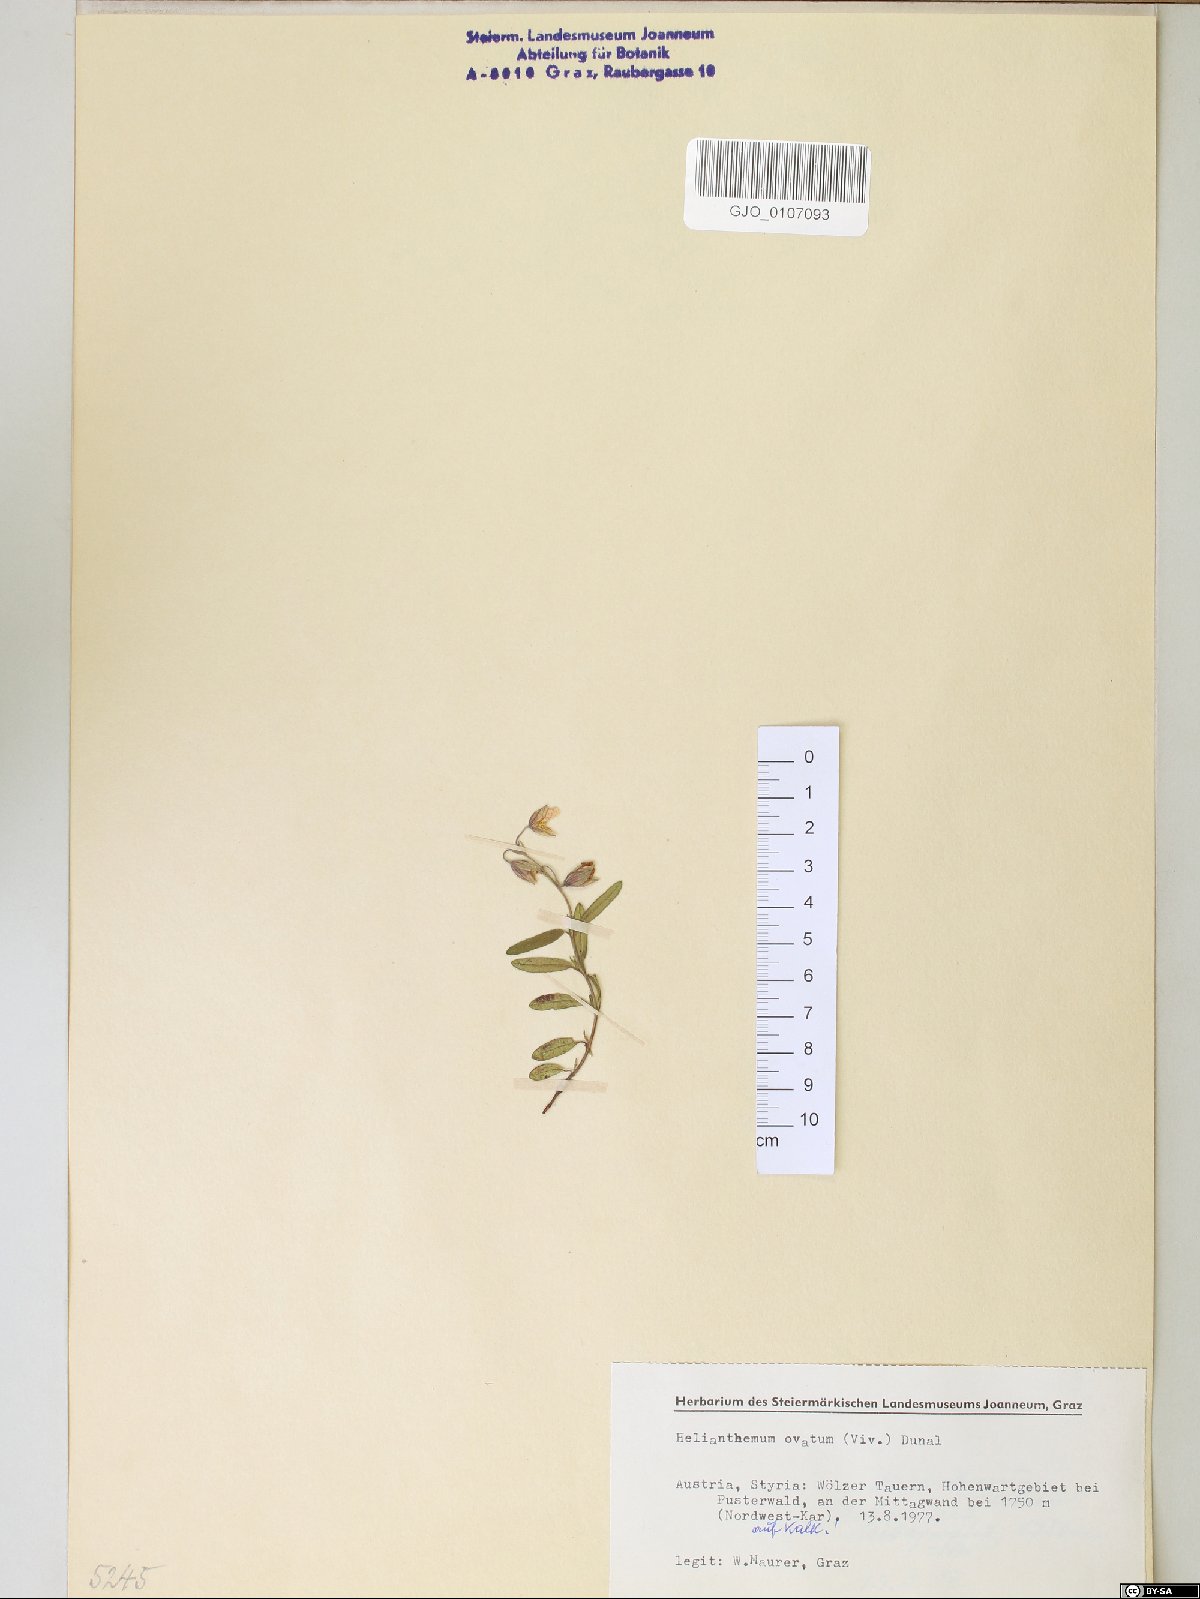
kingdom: Plantae
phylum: Tracheophyta
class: Magnoliopsida
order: Malvales
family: Cistaceae
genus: Helianthemum
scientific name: Helianthemum nummularium
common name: Common rock-rose
